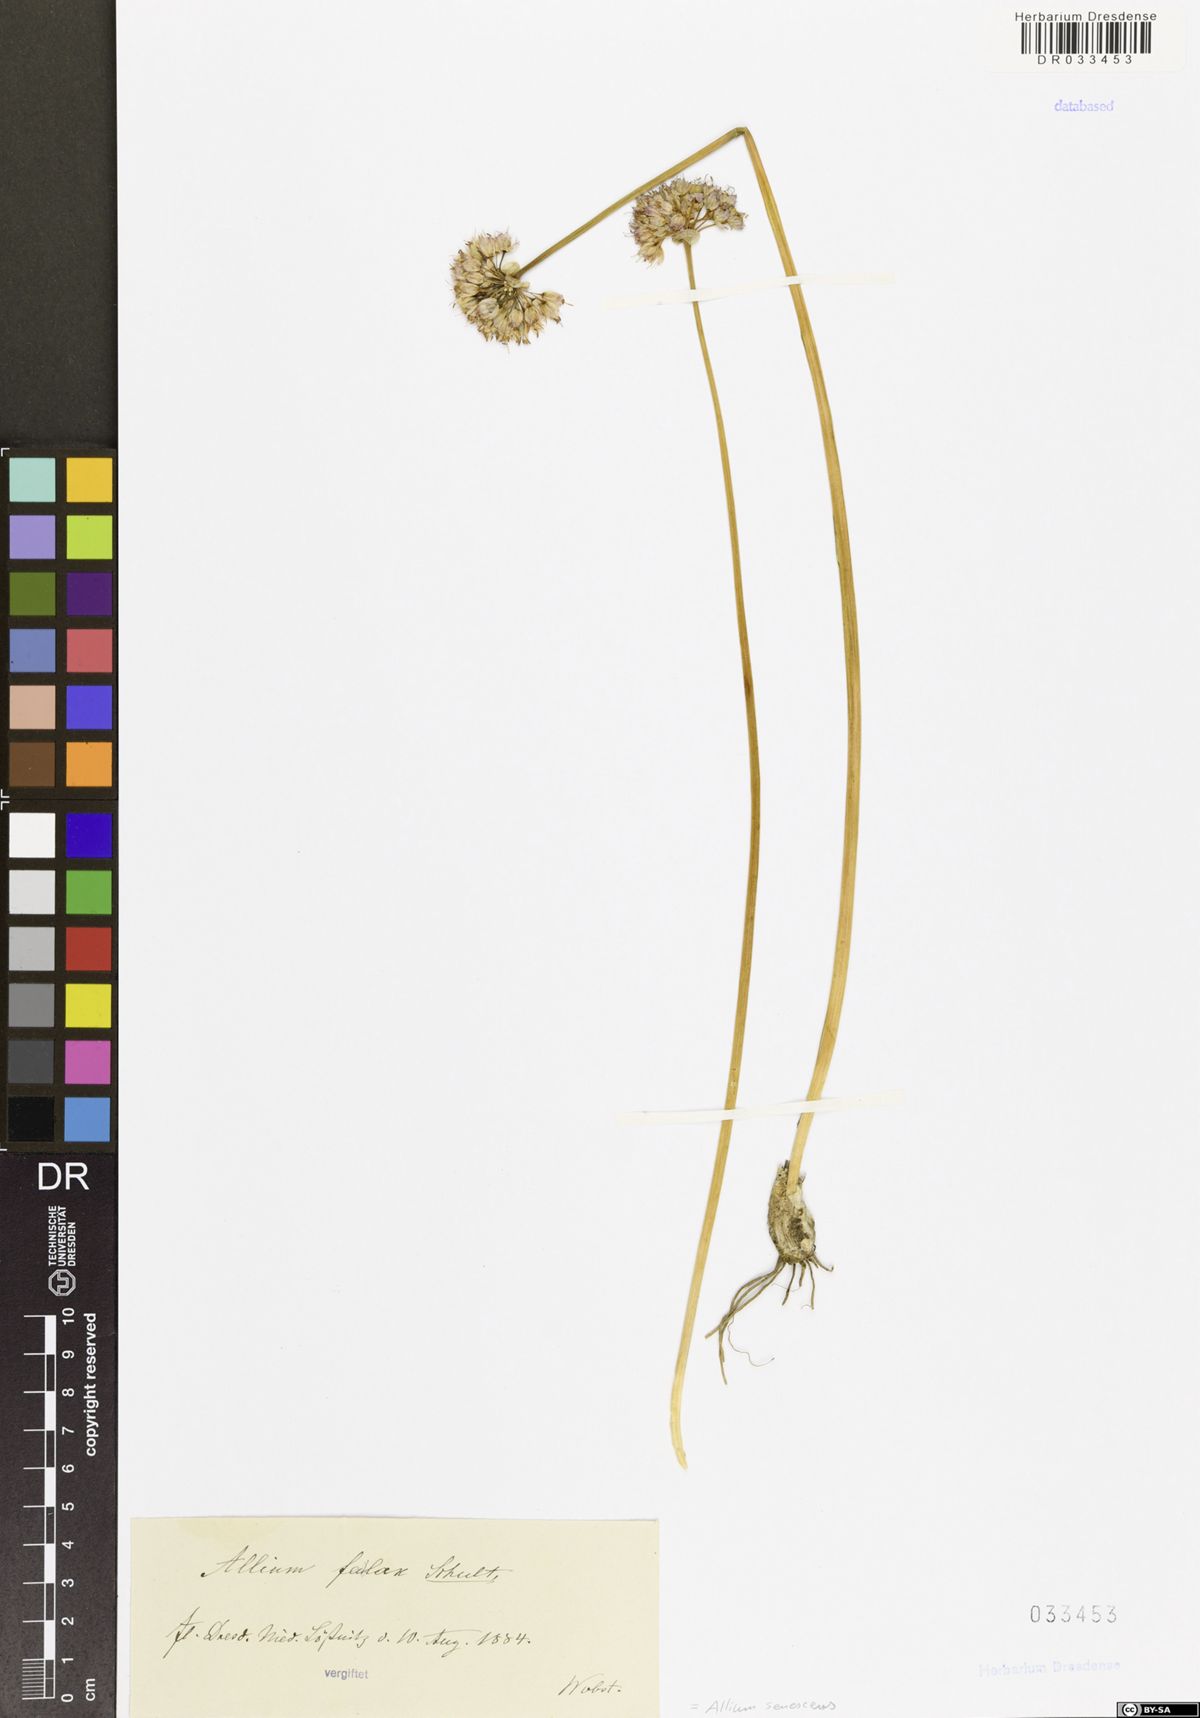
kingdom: Plantae
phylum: Tracheophyta
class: Liliopsida
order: Asparagales
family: Amaryllidaceae
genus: Allium
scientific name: Allium senescens
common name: German garlic
